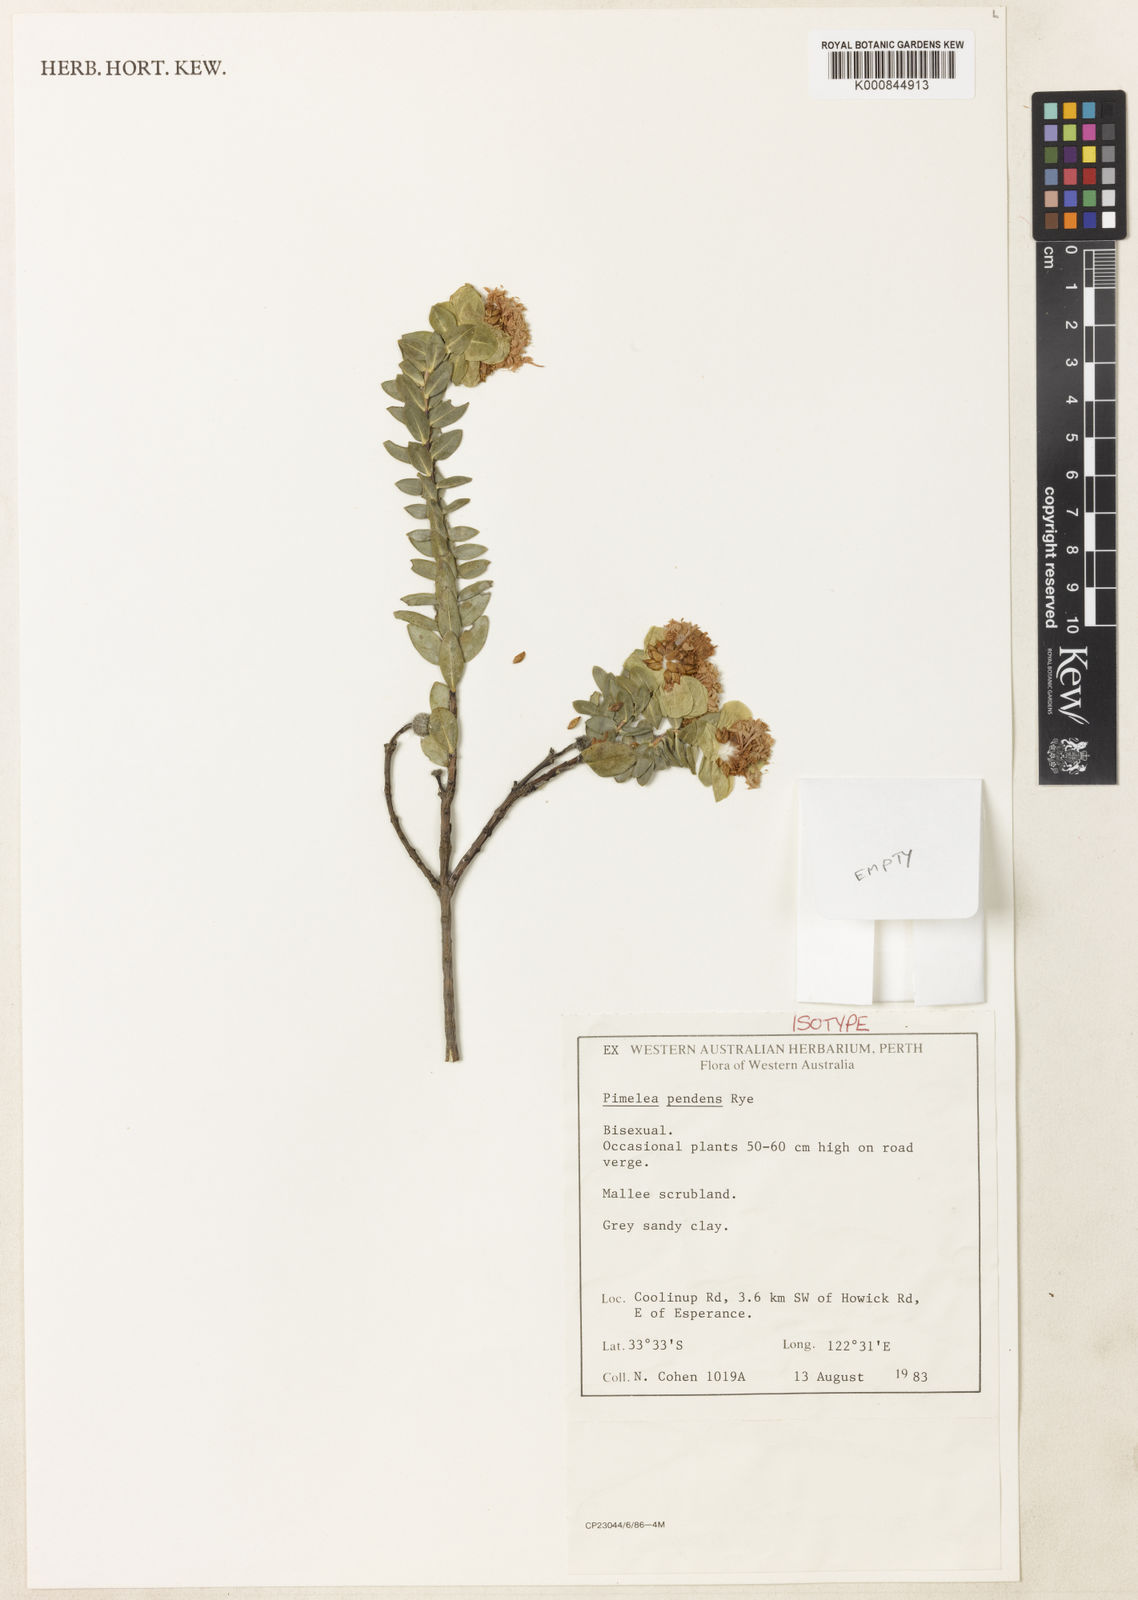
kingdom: Plantae
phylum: Tracheophyta
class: Magnoliopsida
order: Malvales
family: Thymelaeaceae
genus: Pimelea
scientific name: Pimelea pelinos
